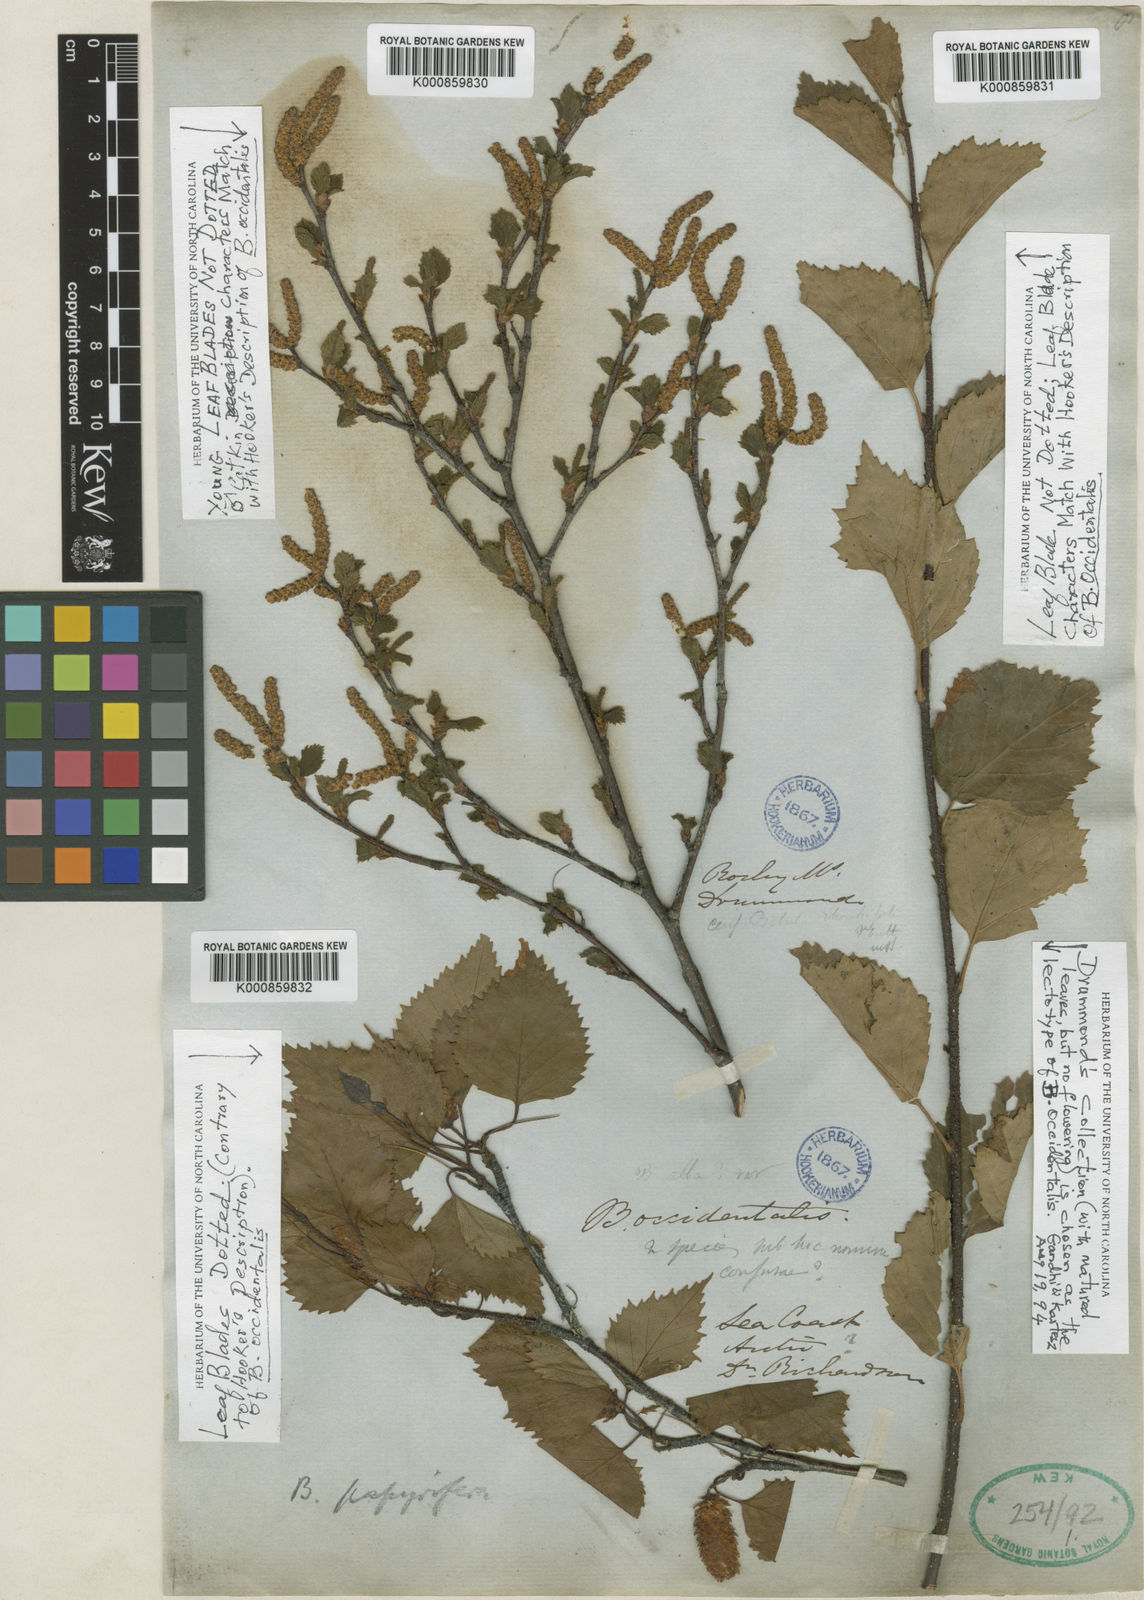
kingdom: Plantae
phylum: Tracheophyta
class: Magnoliopsida
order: Fagales
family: Betulaceae
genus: Betula
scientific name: Betula occidentalis
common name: River birch
